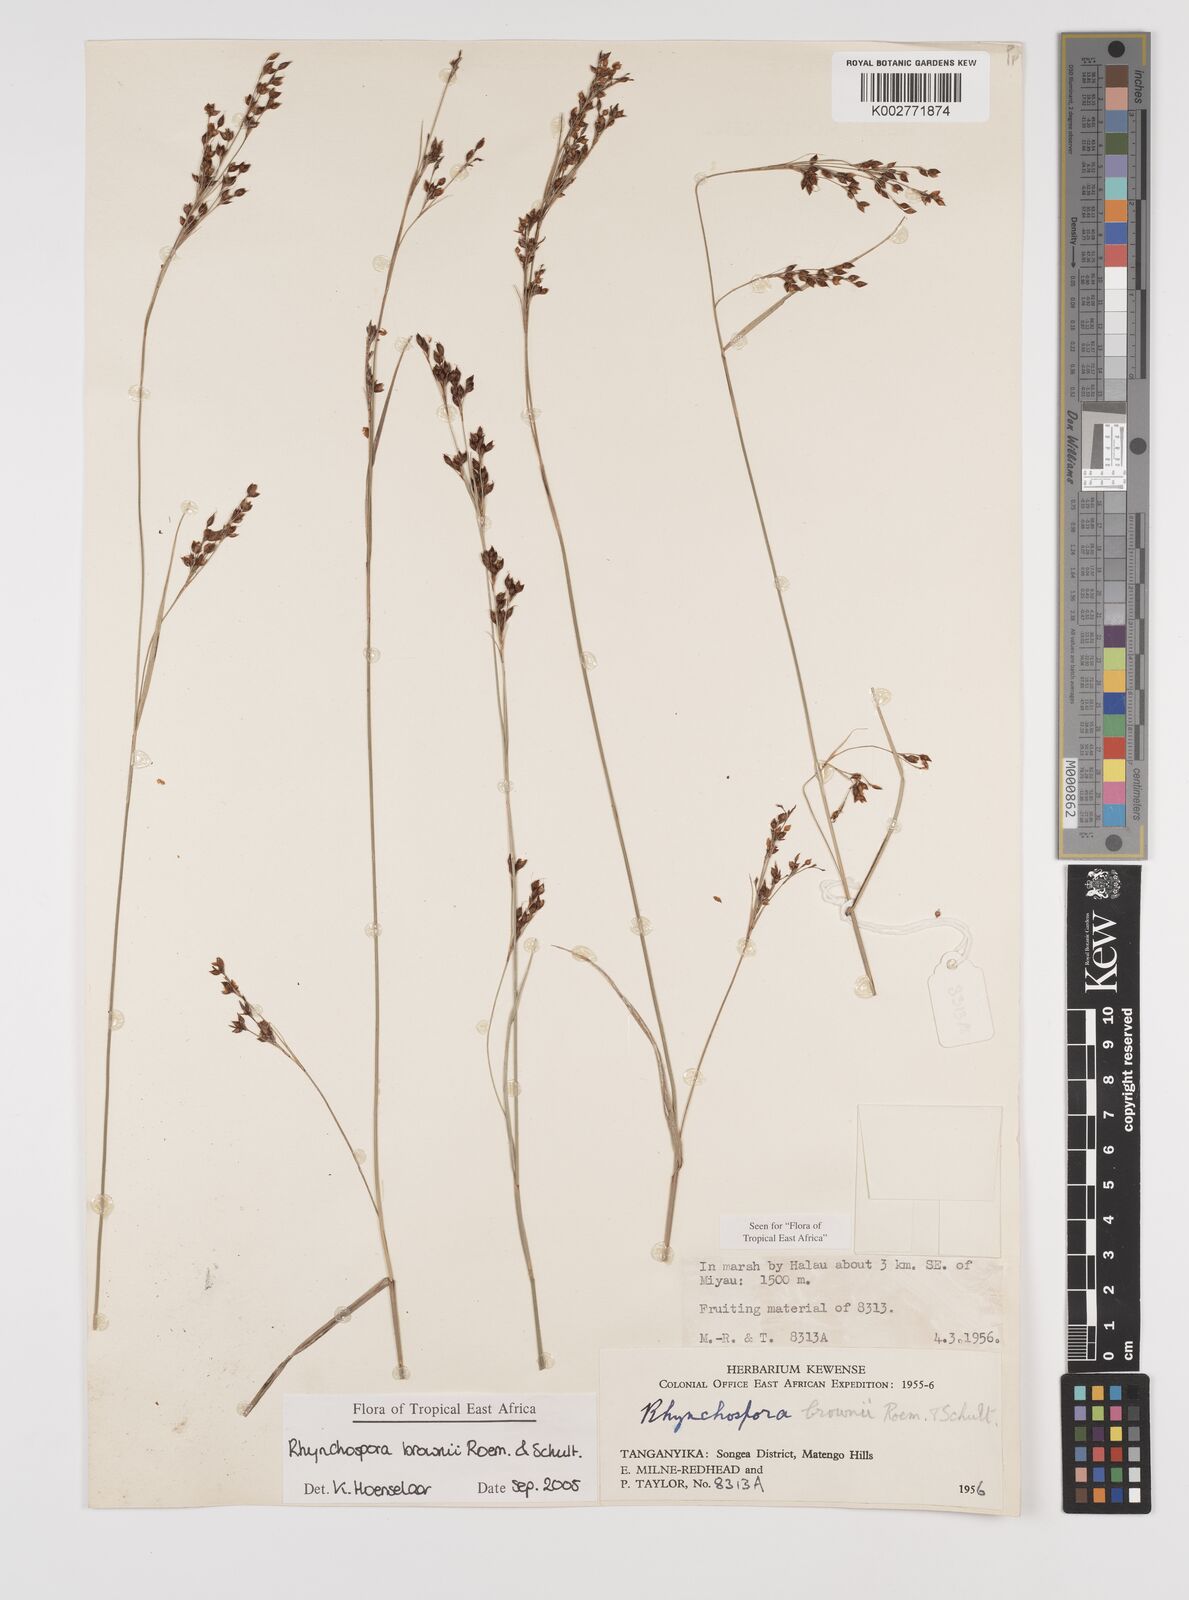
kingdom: Plantae
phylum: Tracheophyta
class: Liliopsida
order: Poales
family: Cyperaceae
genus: Rhynchospora
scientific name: Rhynchospora brownii
